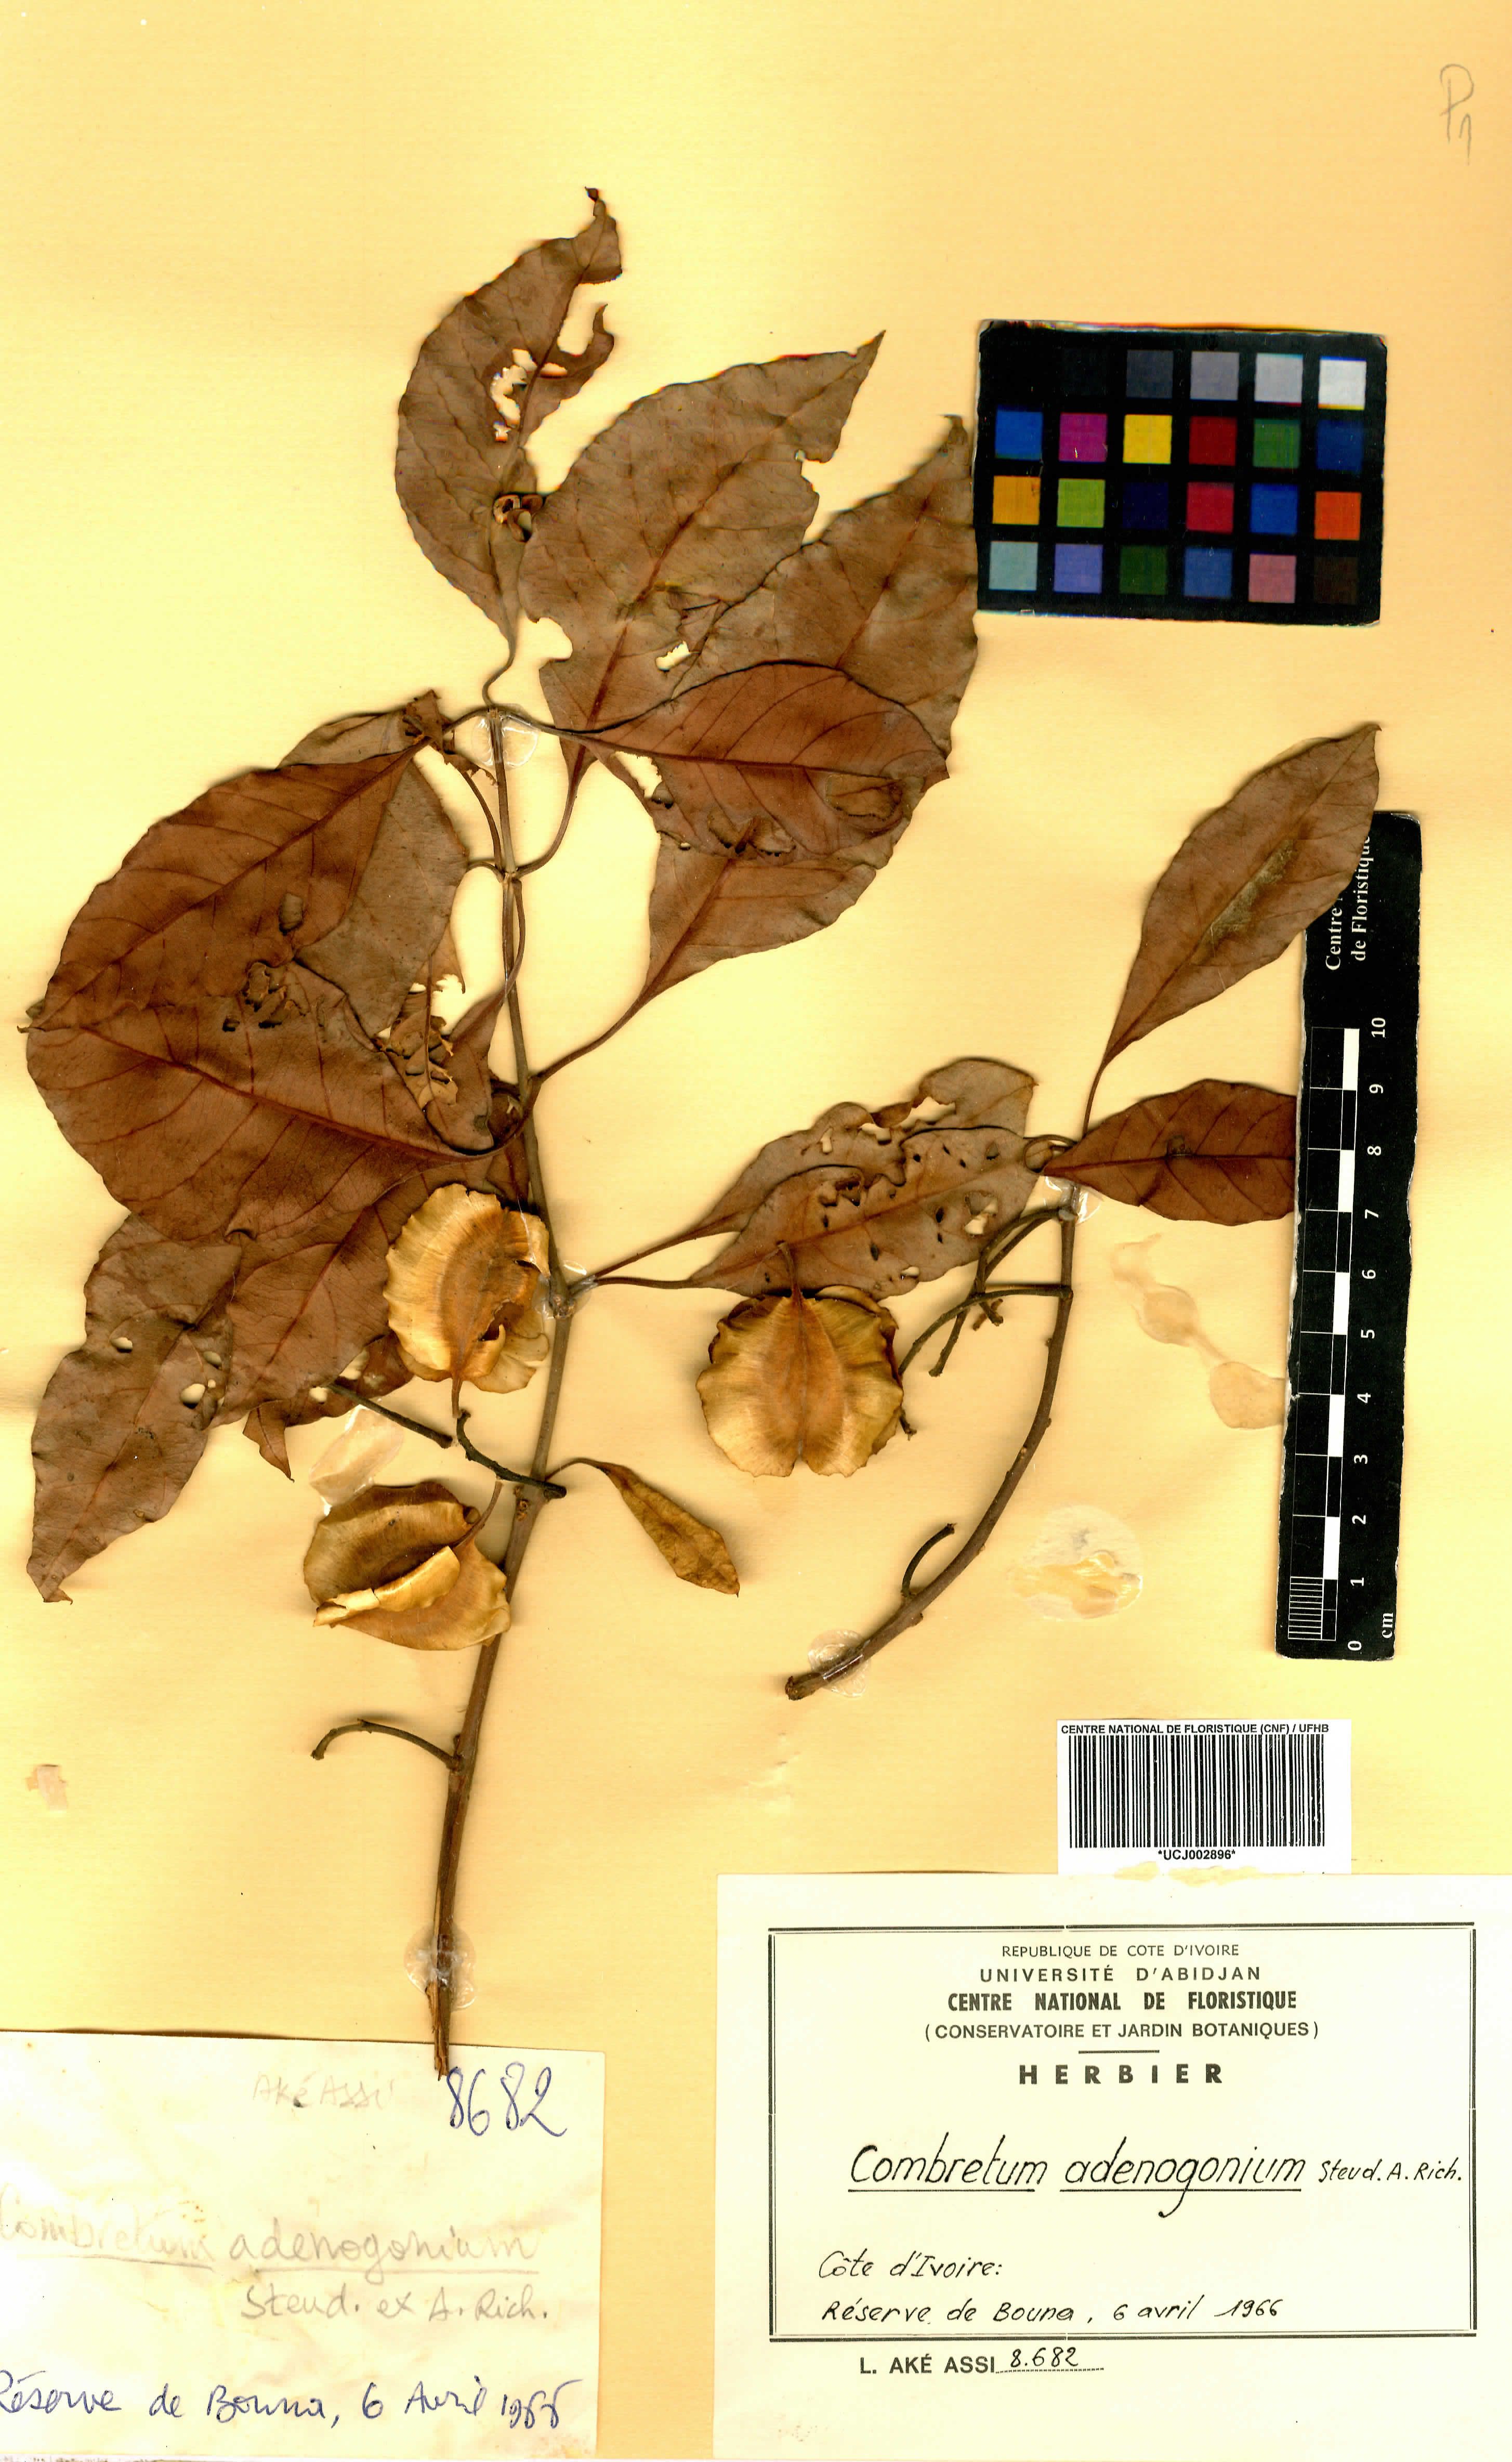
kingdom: Plantae
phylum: Tracheophyta
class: Magnoliopsida
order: Myrtales
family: Combretaceae
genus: Combretum
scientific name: Combretum adenogonium
